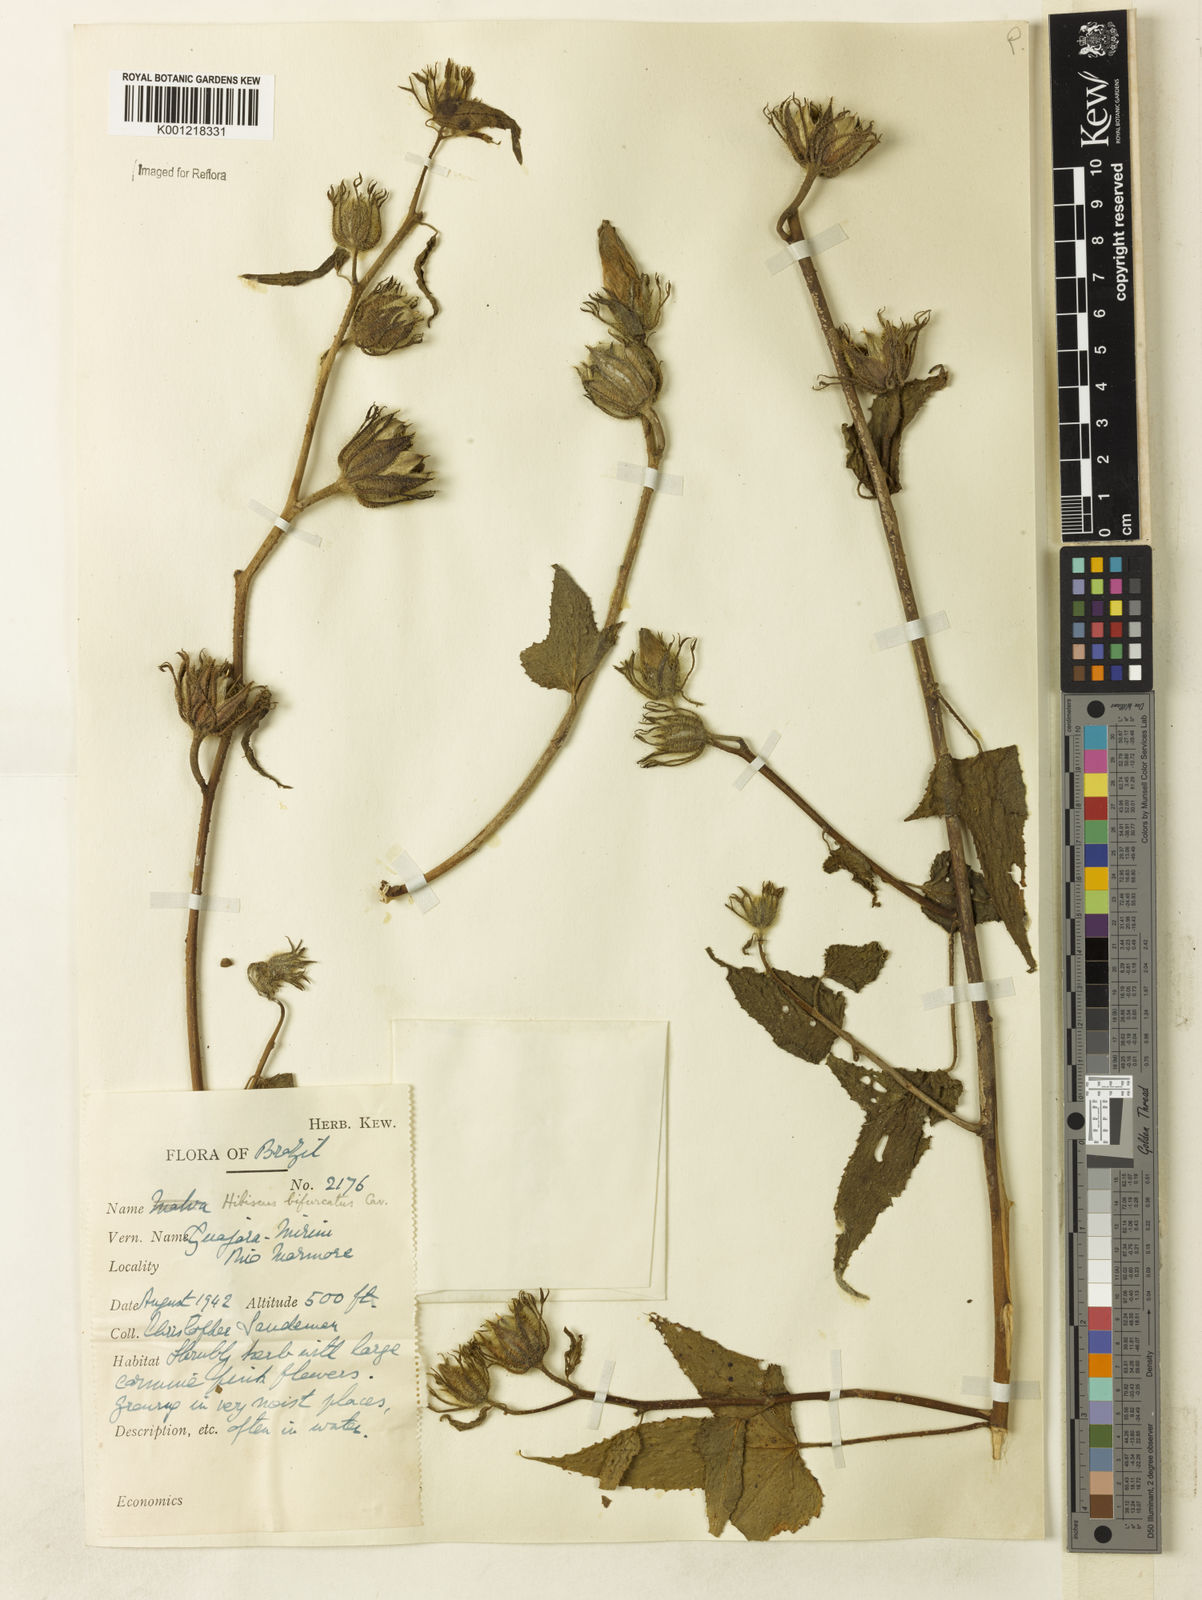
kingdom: Plantae
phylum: Tracheophyta
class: Magnoliopsida
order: Malvales
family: Malvaceae
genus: Hibiscus
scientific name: Hibiscus bifurcatus
